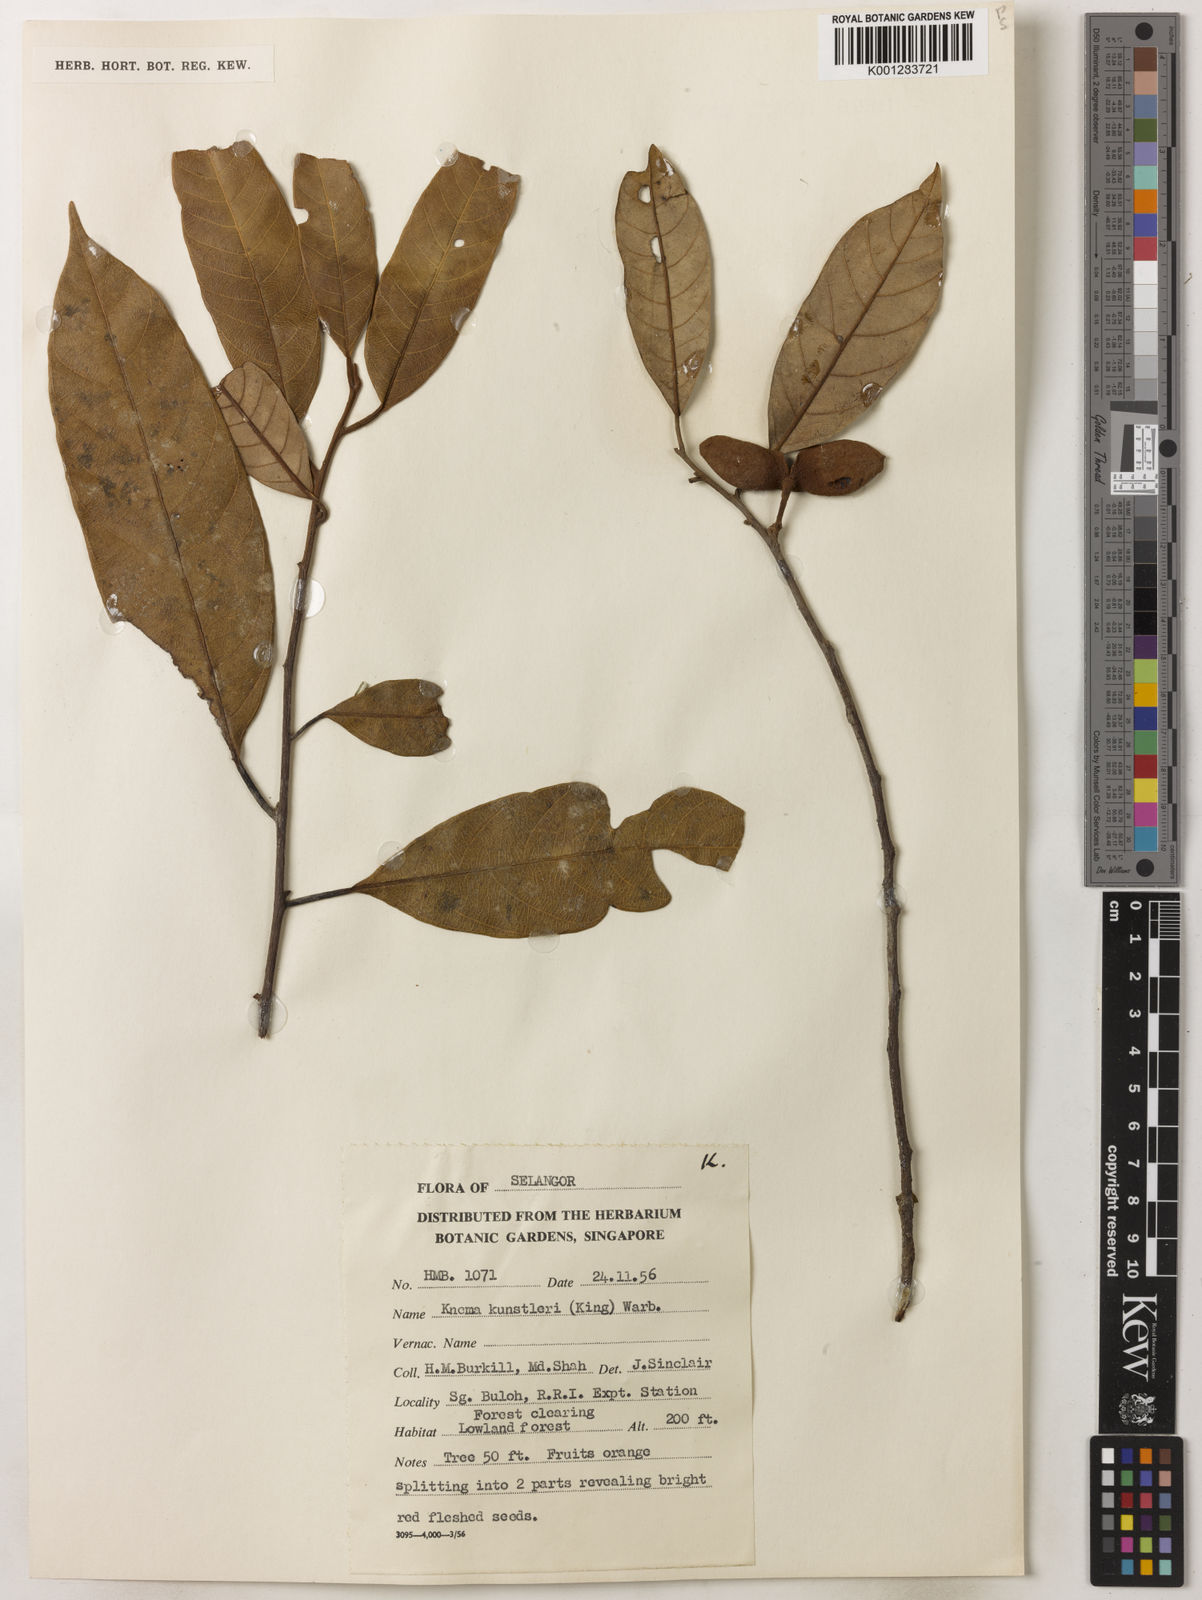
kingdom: Plantae
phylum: Tracheophyta
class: Magnoliopsida
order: Magnoliales
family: Myristicaceae
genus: Knema
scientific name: Knema kunstleri
